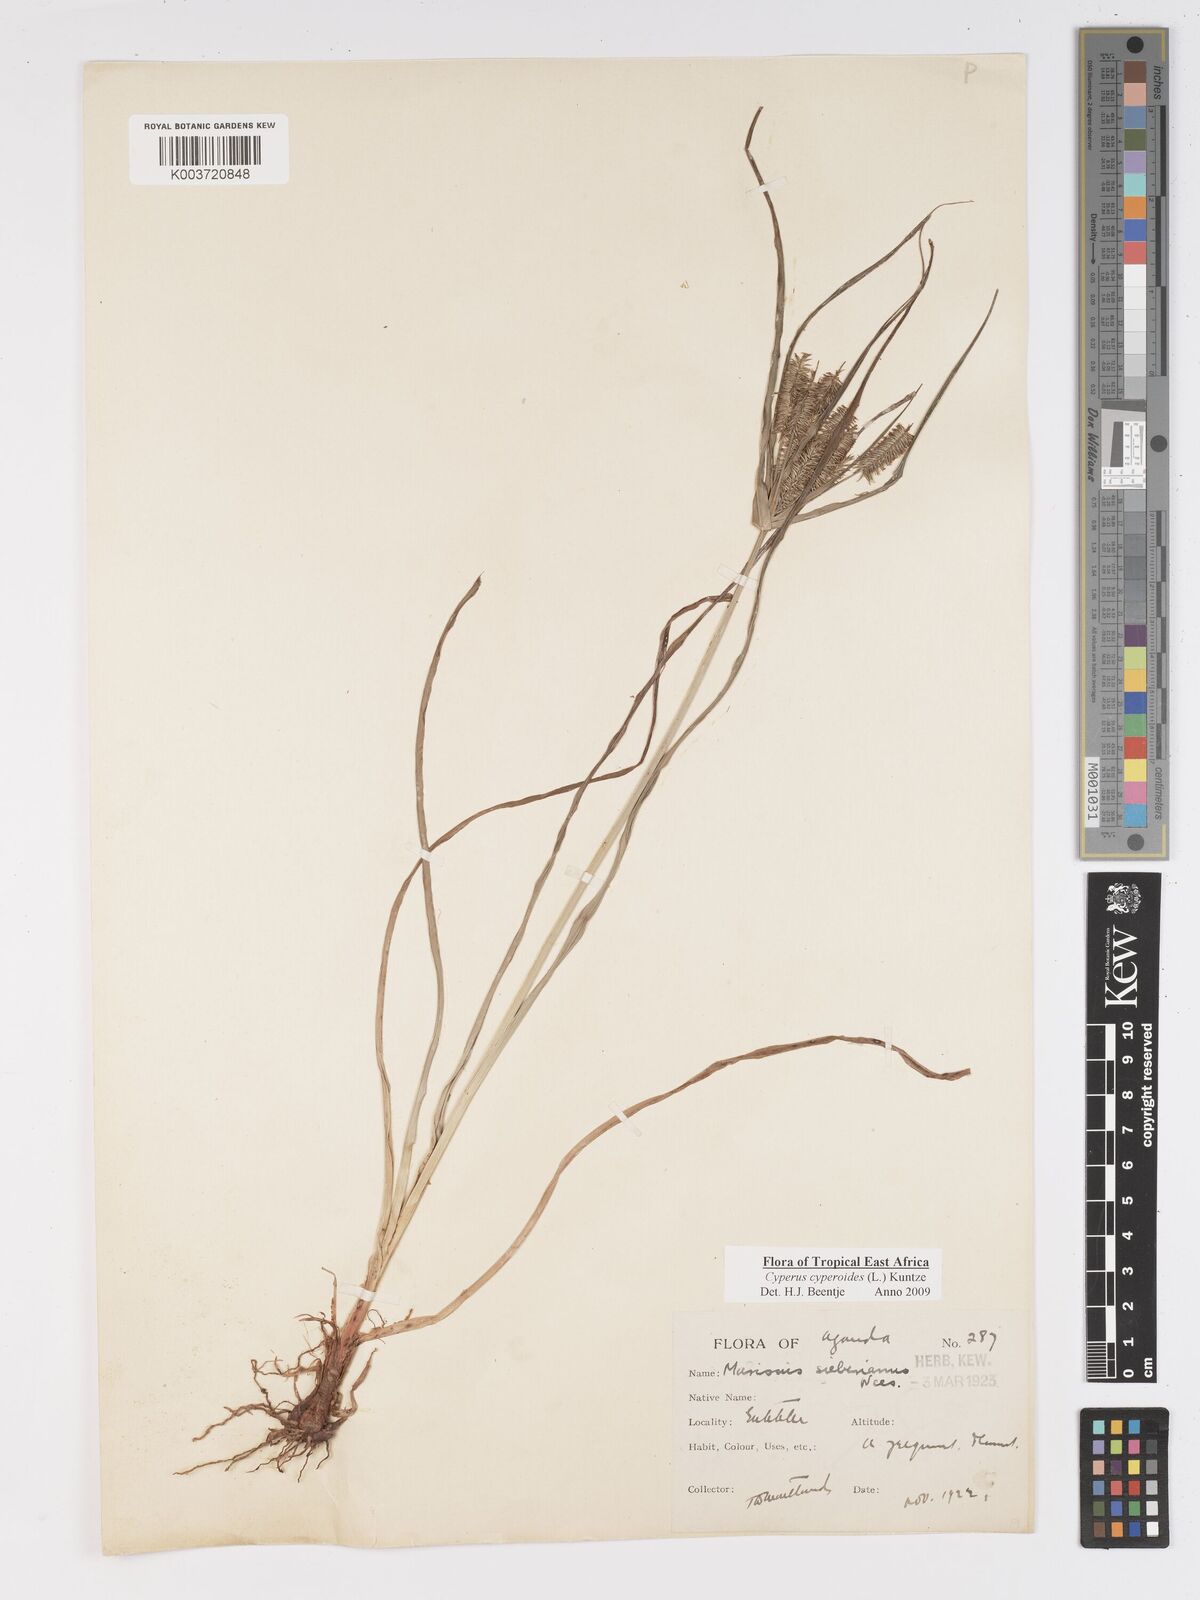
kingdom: Plantae
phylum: Tracheophyta
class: Liliopsida
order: Poales
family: Cyperaceae
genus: Cyperus
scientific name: Cyperus cyperoides
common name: Pacific island flat sedge
